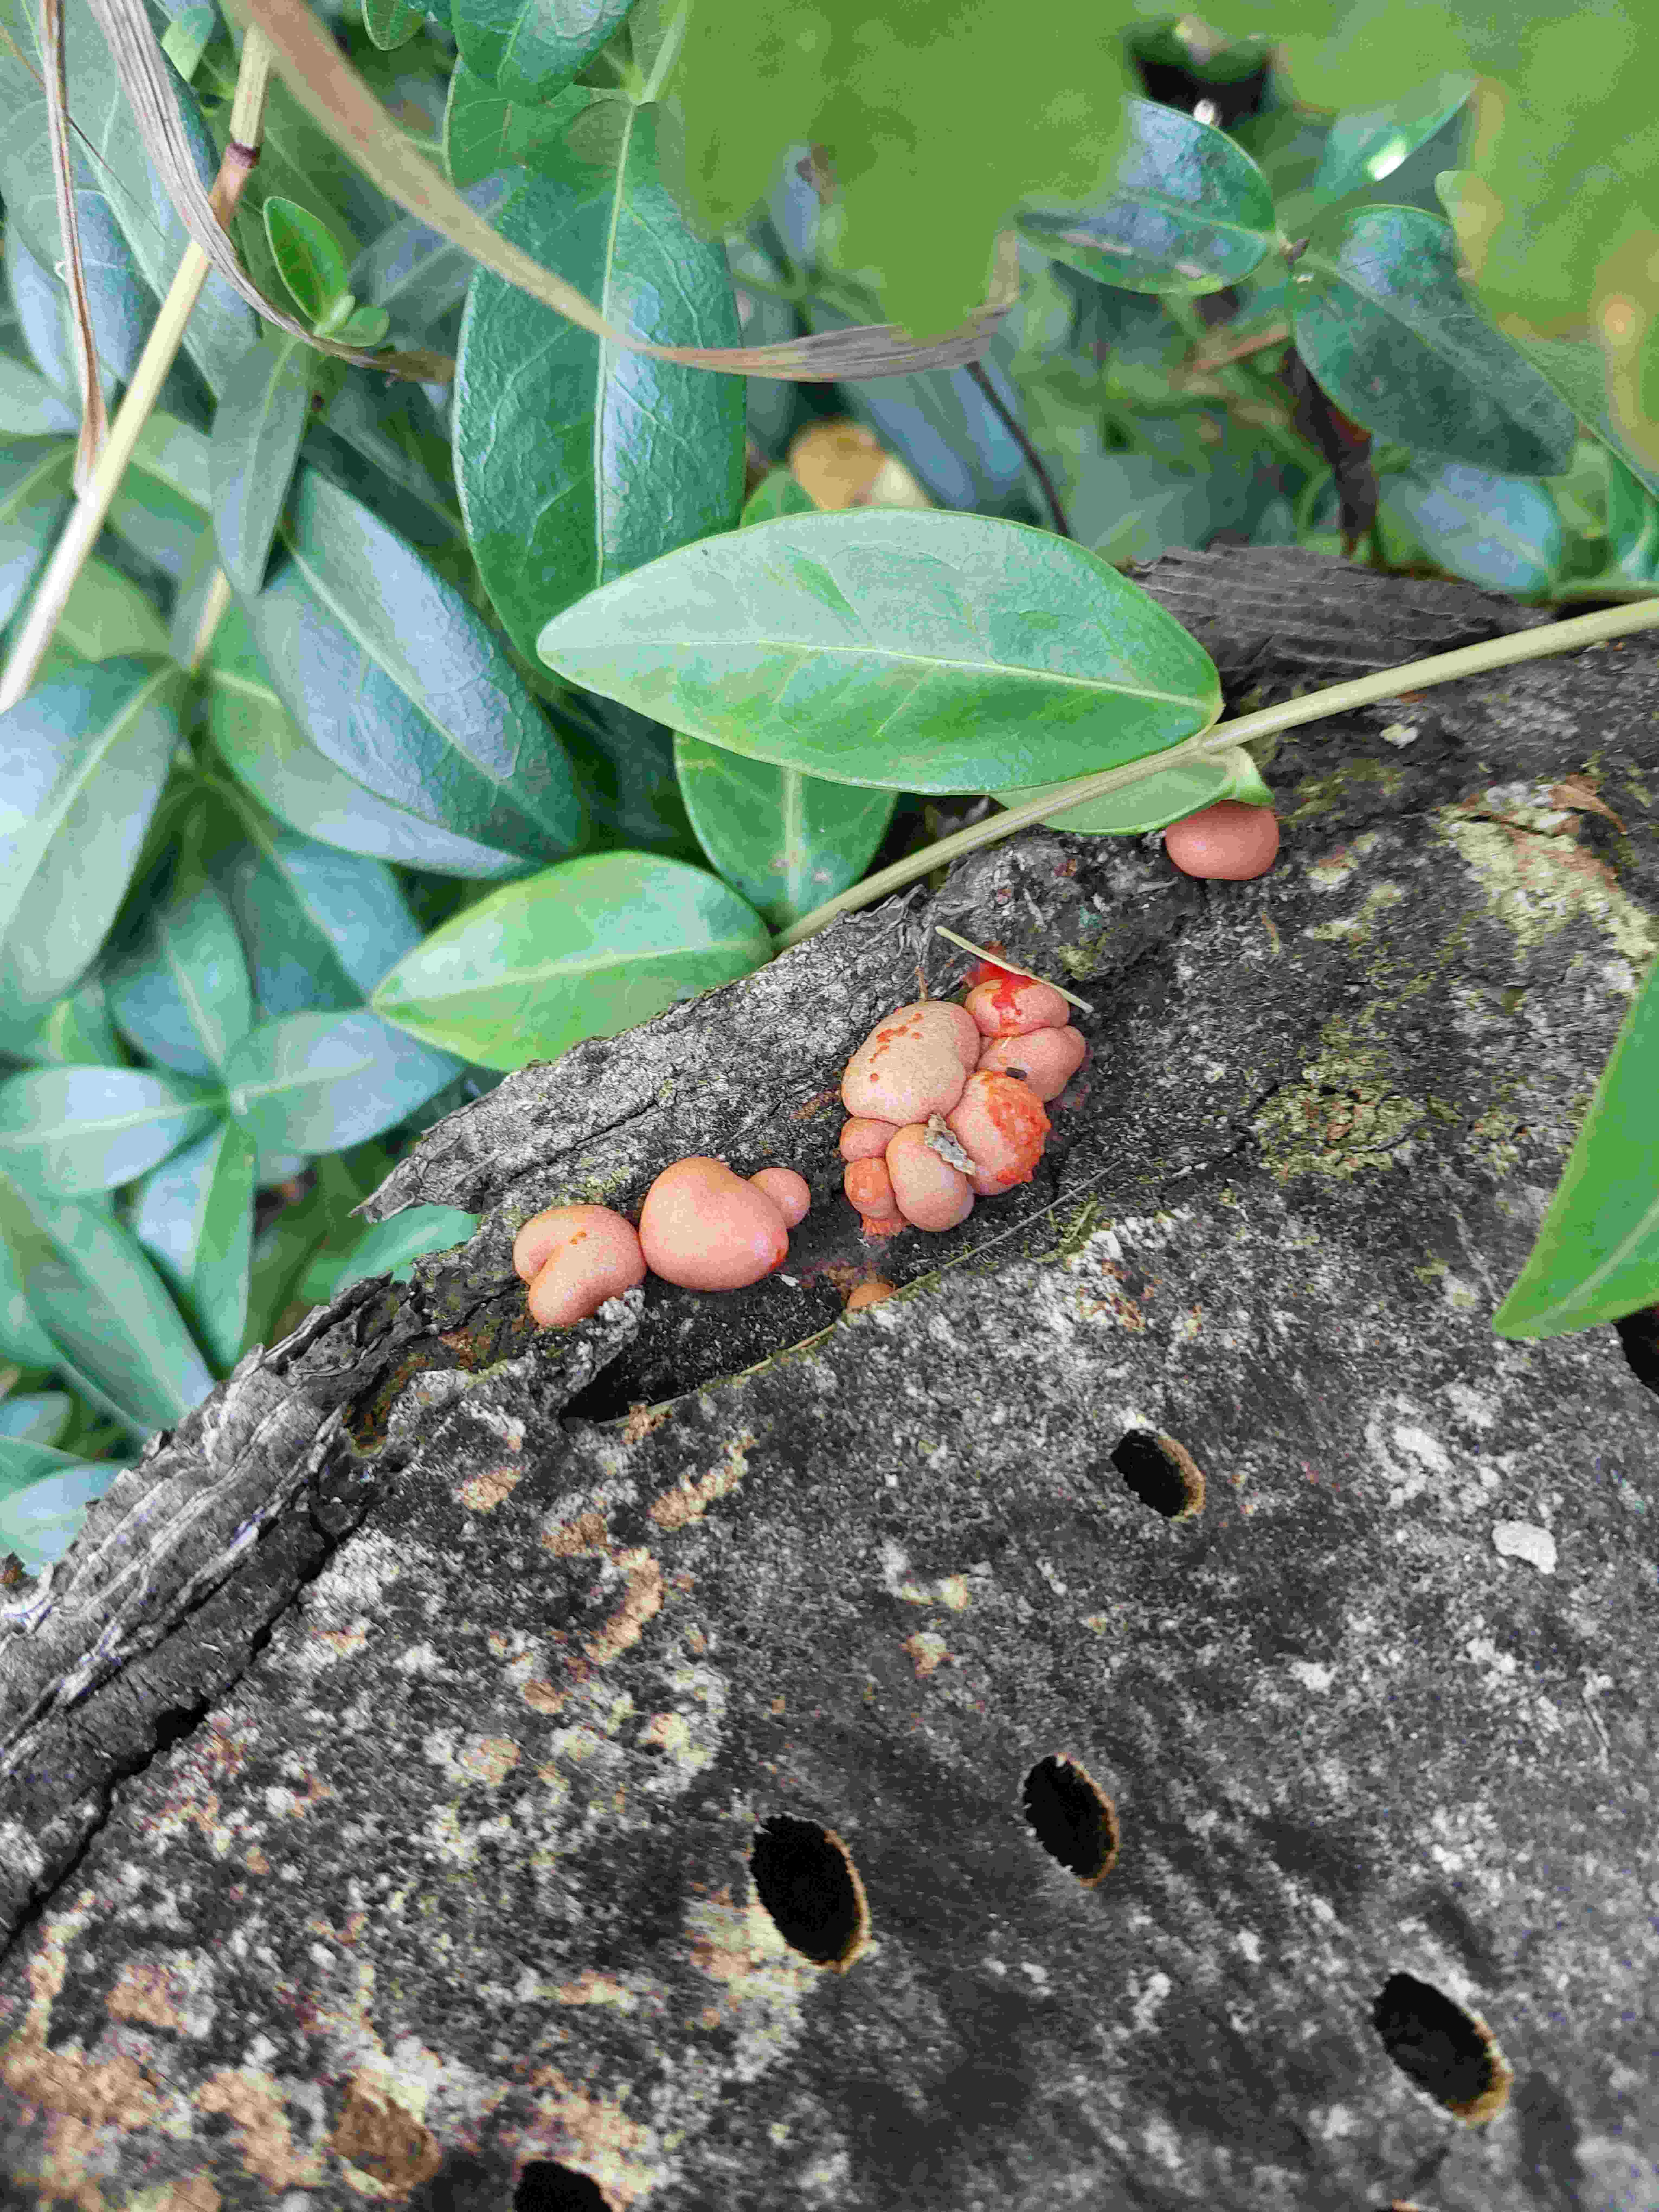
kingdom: Protozoa
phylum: Mycetozoa
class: Myxomycetes
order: Cribrariales
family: Tubiferaceae
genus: Lycogala
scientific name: Lycogala epidendrum
